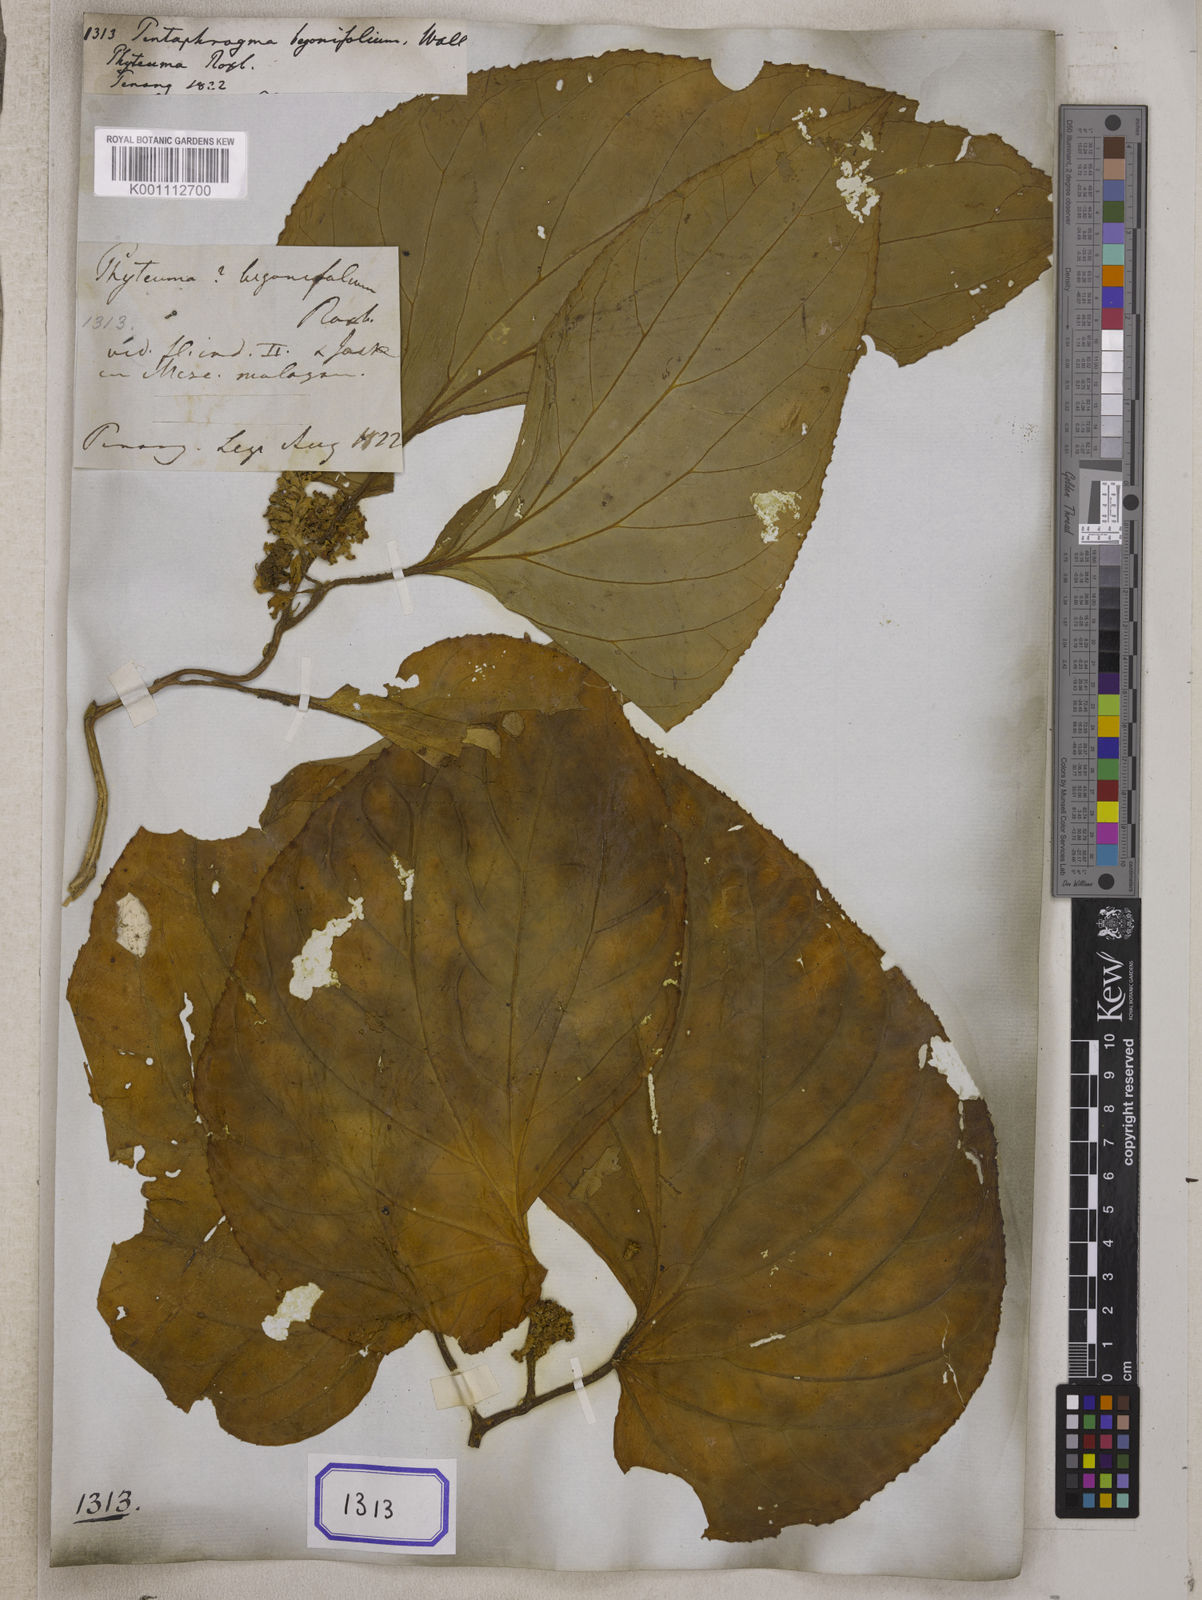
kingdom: Plantae
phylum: Tracheophyta
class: Magnoliopsida
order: Asterales
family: Pentaphragmataceae
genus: Pentaphragma
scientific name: Pentaphragma begoniifolium
